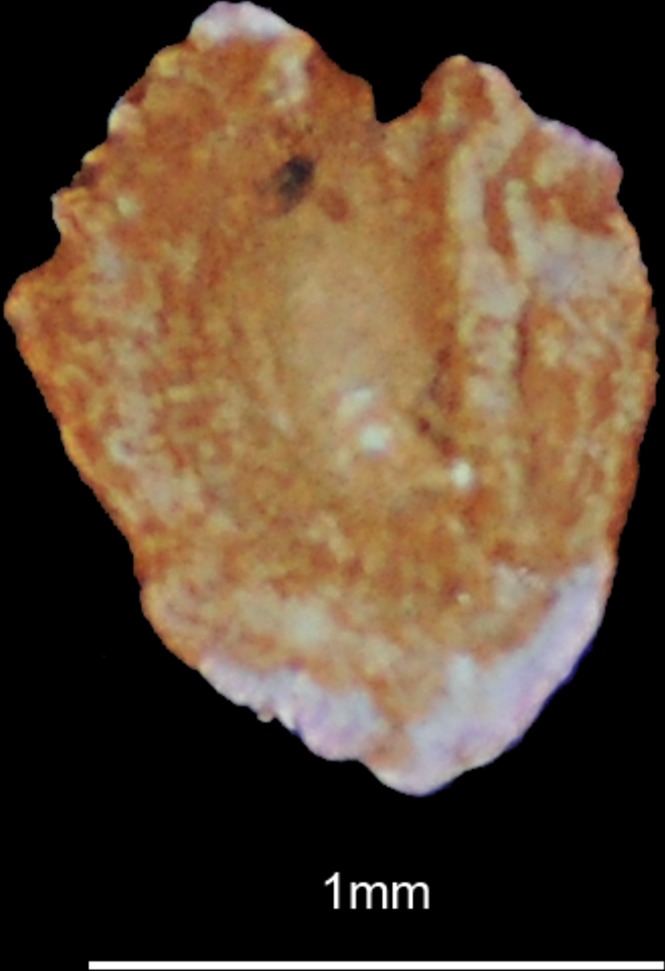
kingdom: Animalia
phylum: Chordata
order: Cypriniformes
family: Cyprinidae
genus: Schizothorax
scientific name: Schizothorax richardsonii
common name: Alawan snowtrout
